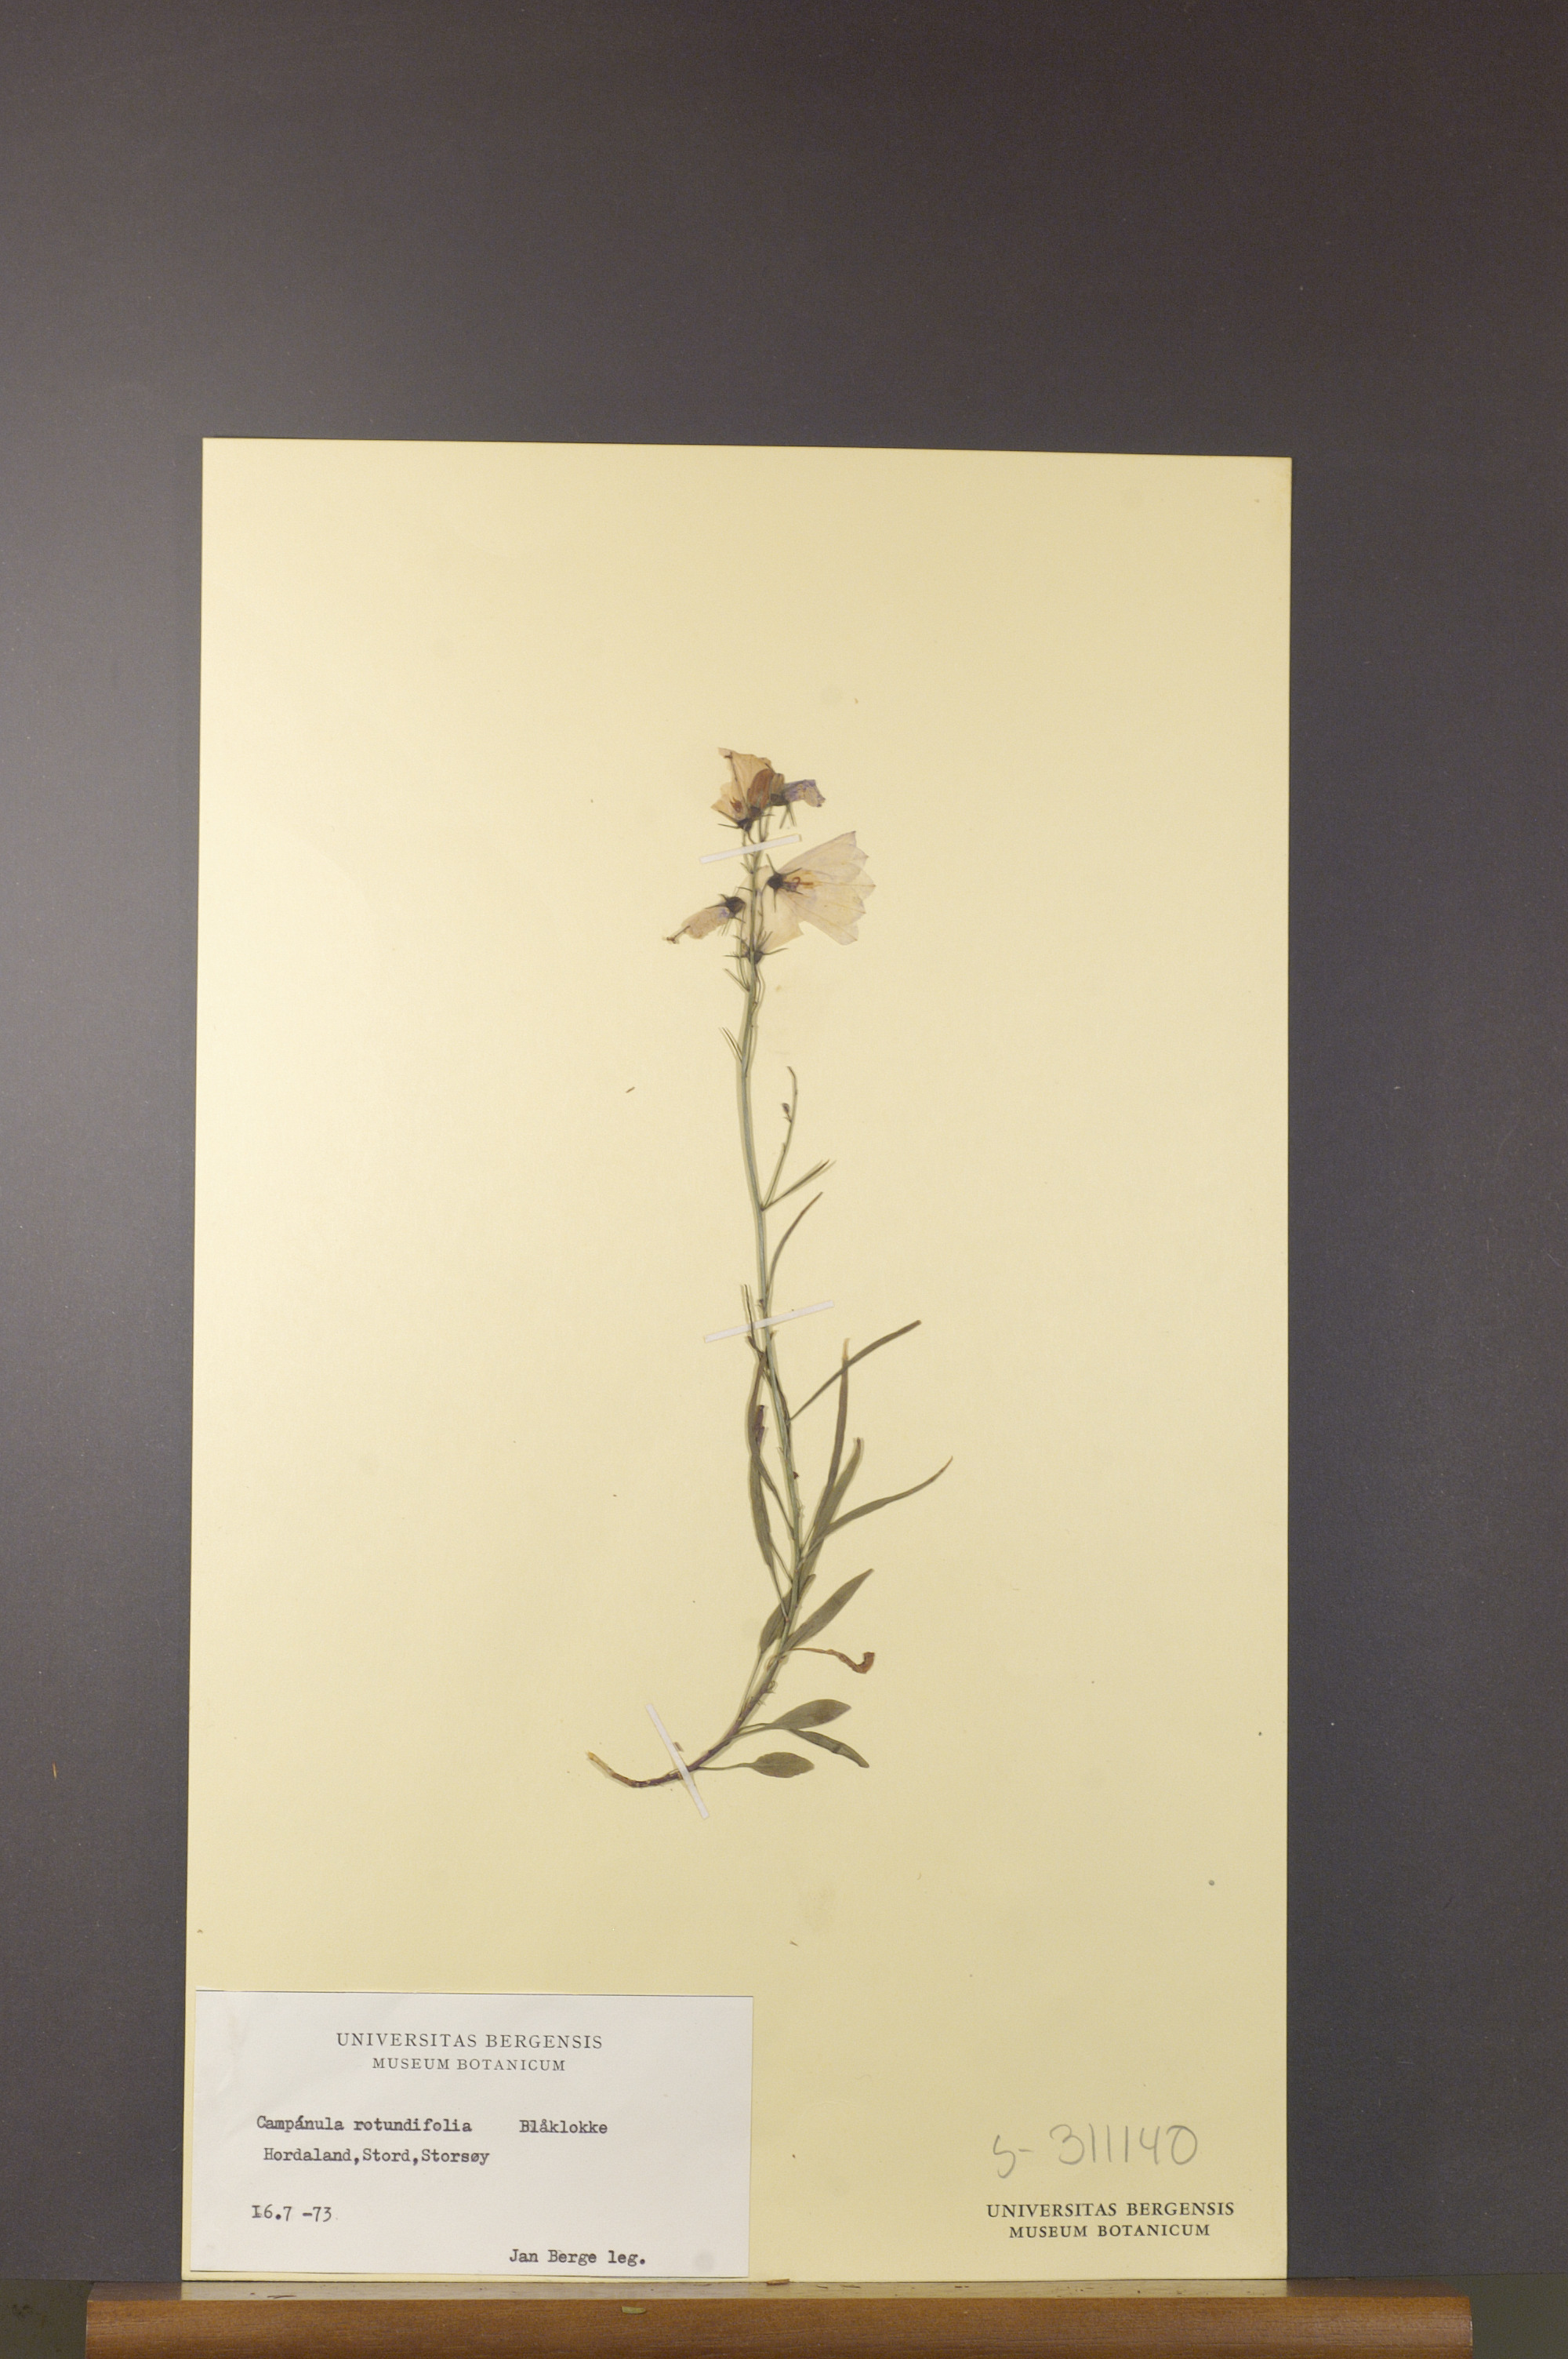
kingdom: Plantae
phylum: Tracheophyta
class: Magnoliopsida
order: Asterales
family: Campanulaceae
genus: Campanula
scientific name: Campanula rotundifolia
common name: Harebell
